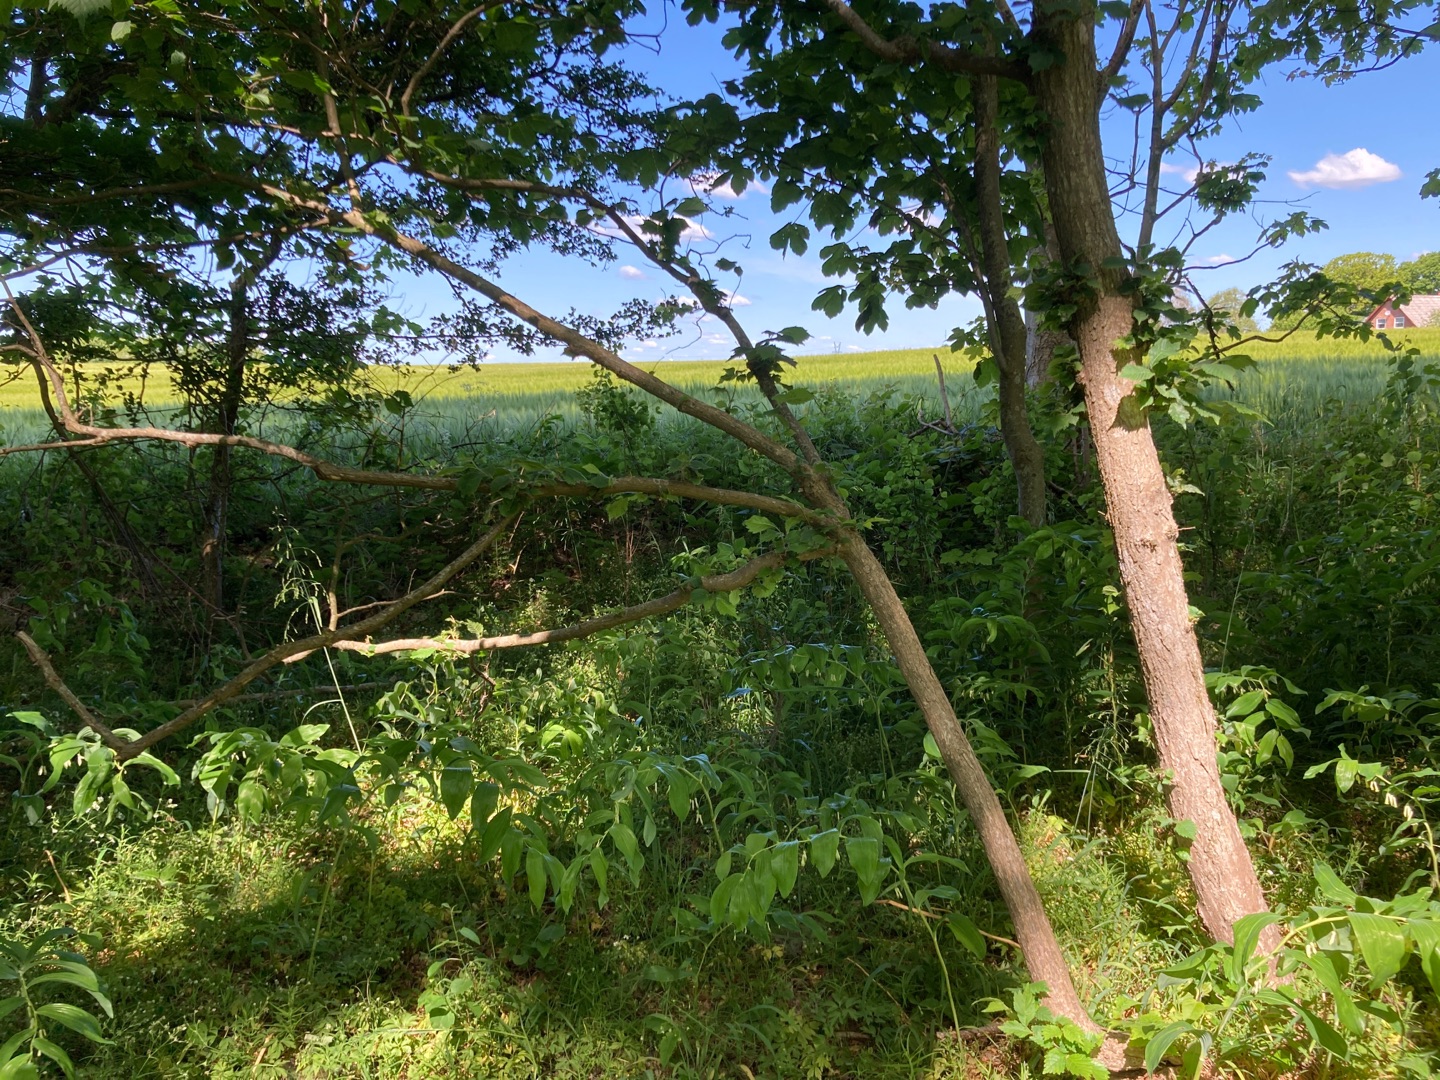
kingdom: Plantae
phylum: Tracheophyta
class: Liliopsida
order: Asparagales
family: Asparagaceae
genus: Polygonatum
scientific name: Polygonatum multiflorum
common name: Stor konval
